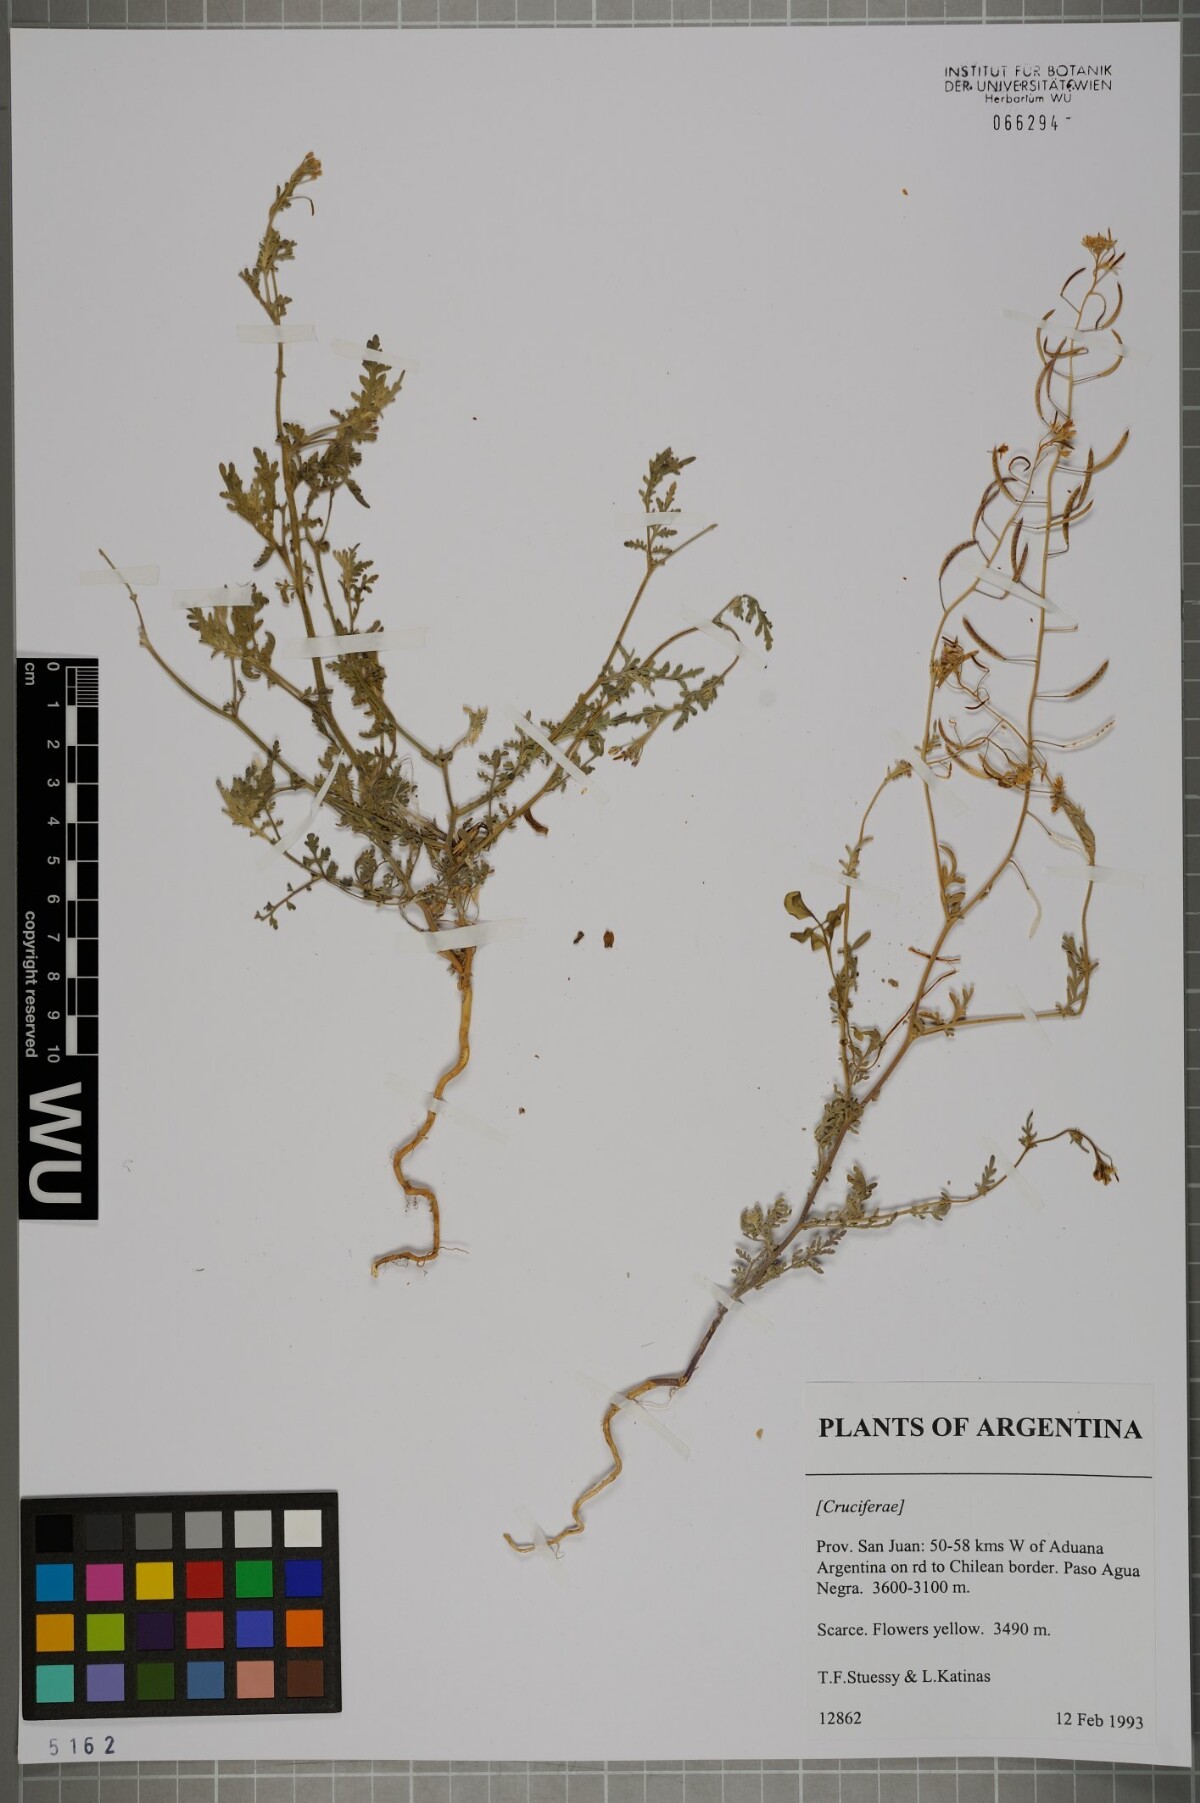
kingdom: Plantae
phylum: Tracheophyta
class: Magnoliopsida
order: Brassicales
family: Brassicaceae
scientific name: Brassicaceae
